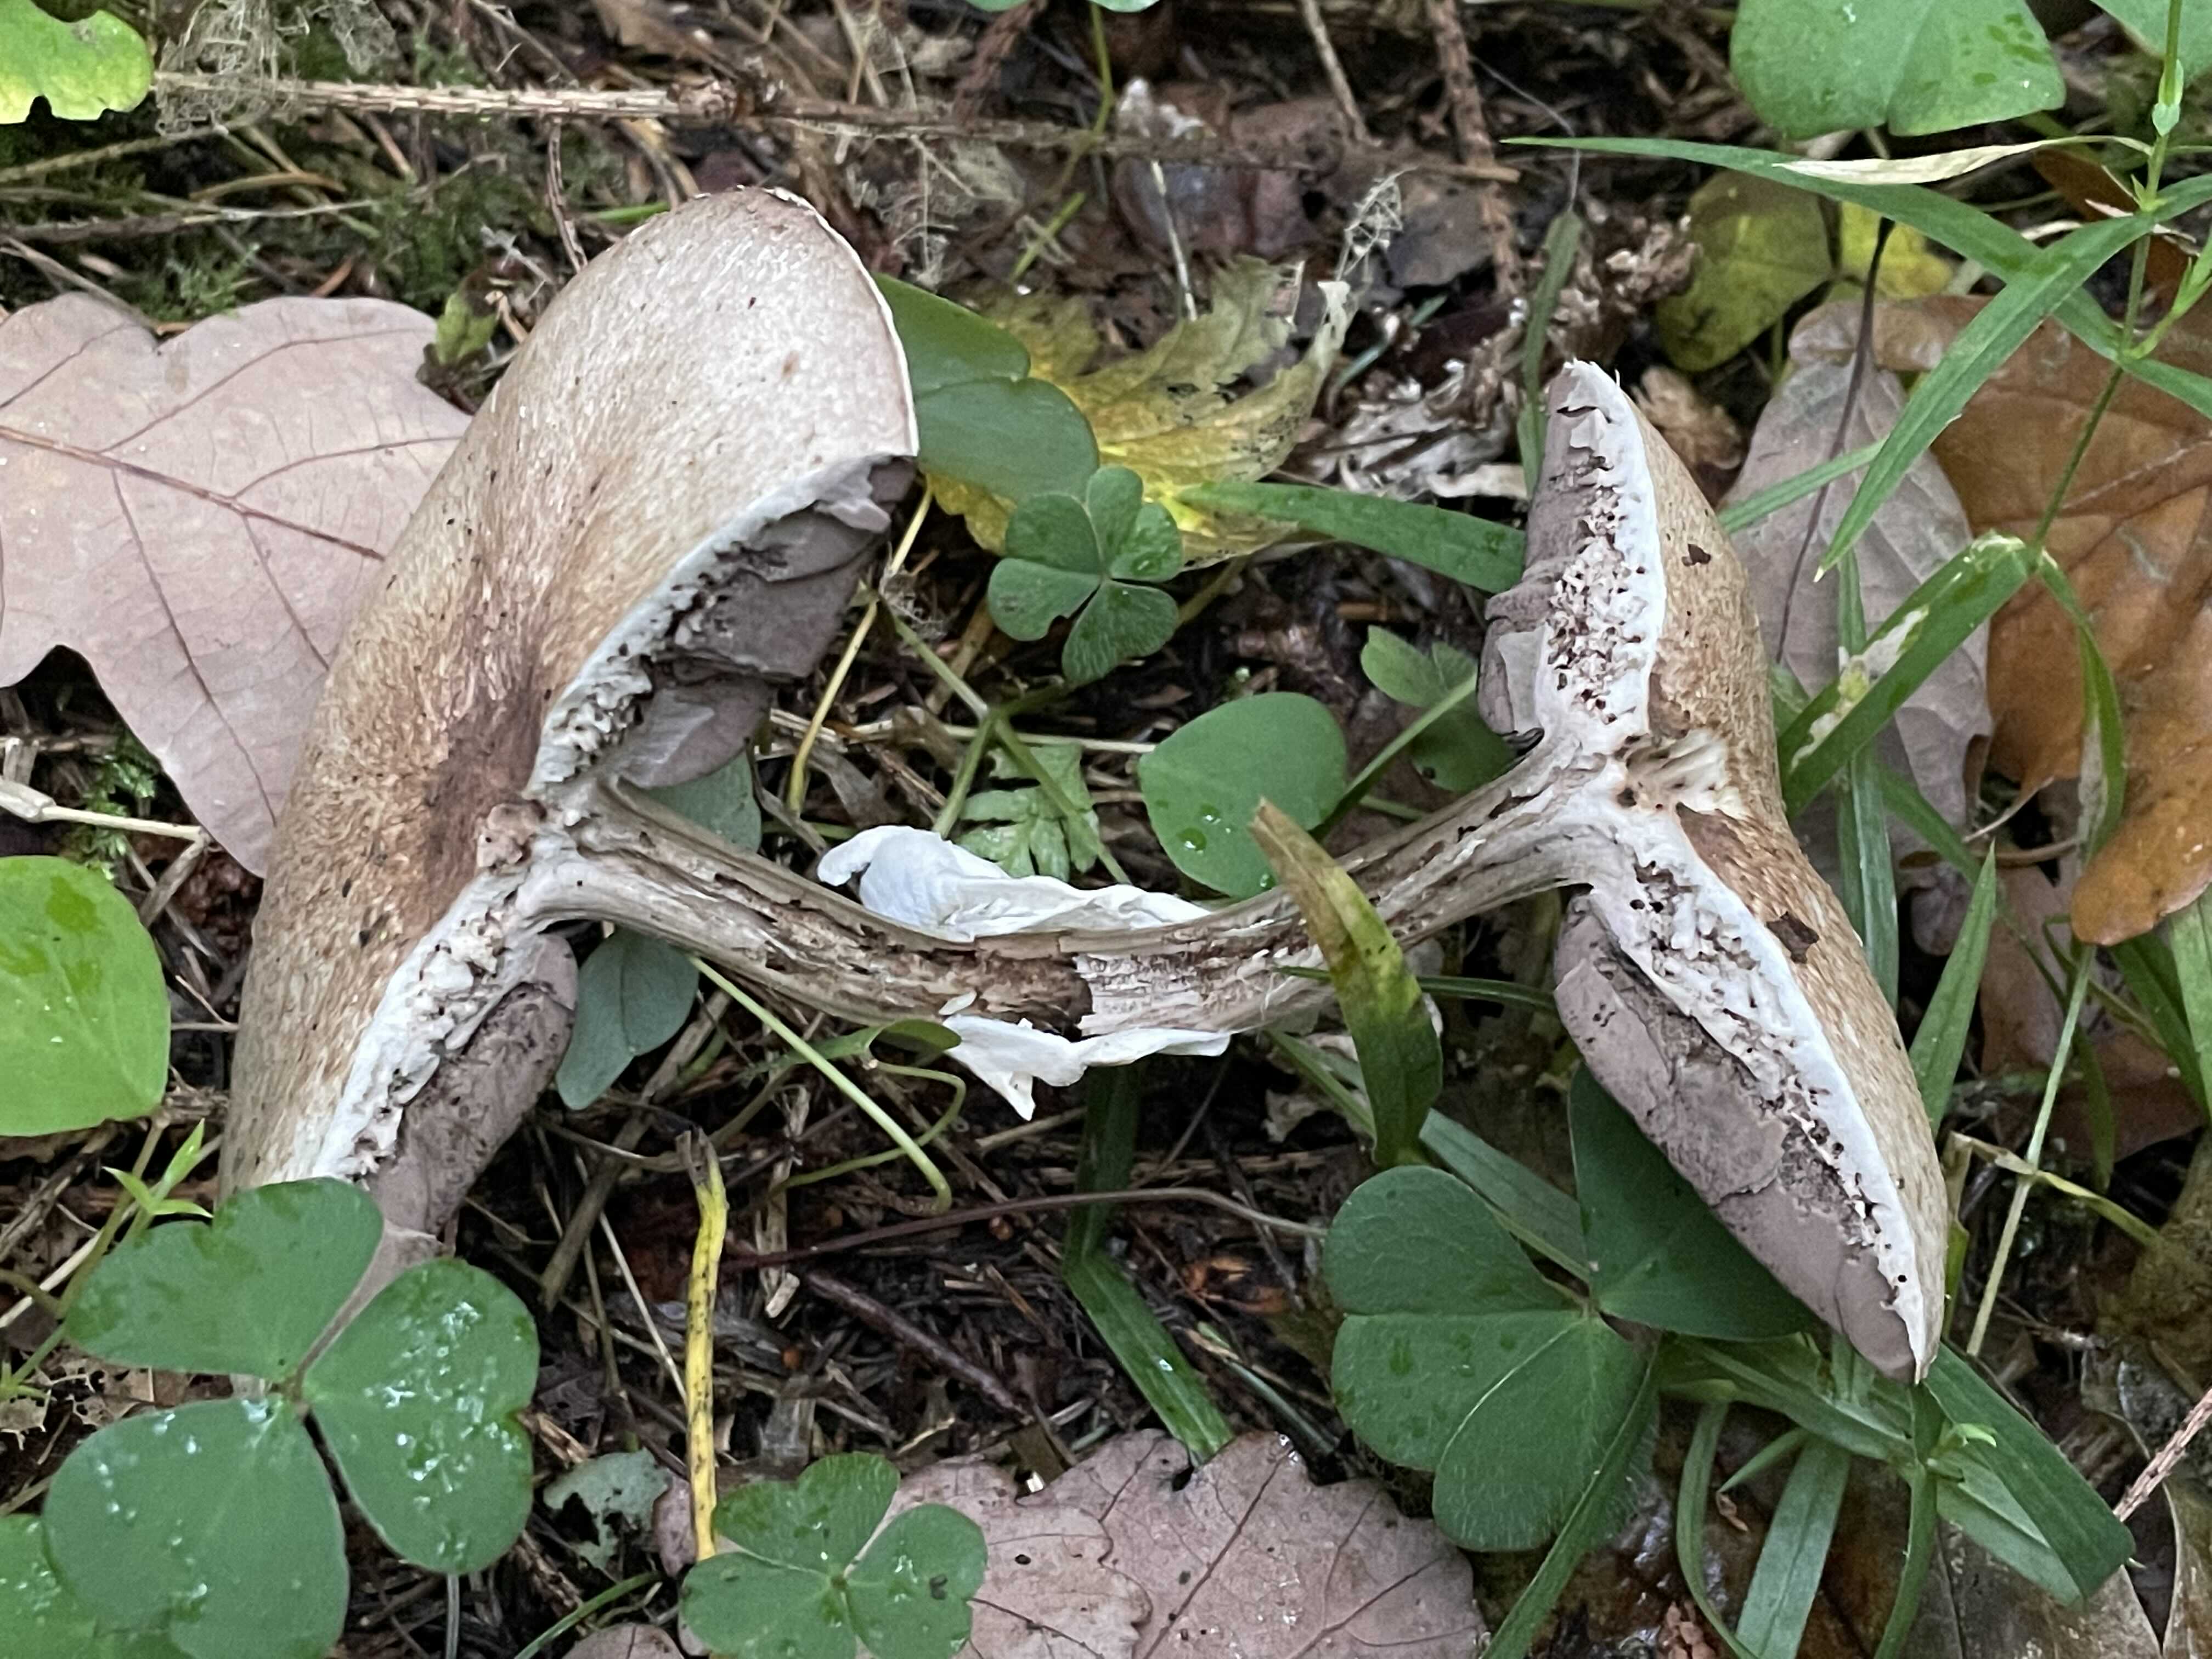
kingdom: Fungi
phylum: Basidiomycota
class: Agaricomycetes
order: Agaricales
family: Agaricaceae
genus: Agaricus
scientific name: Agaricus impudicus
